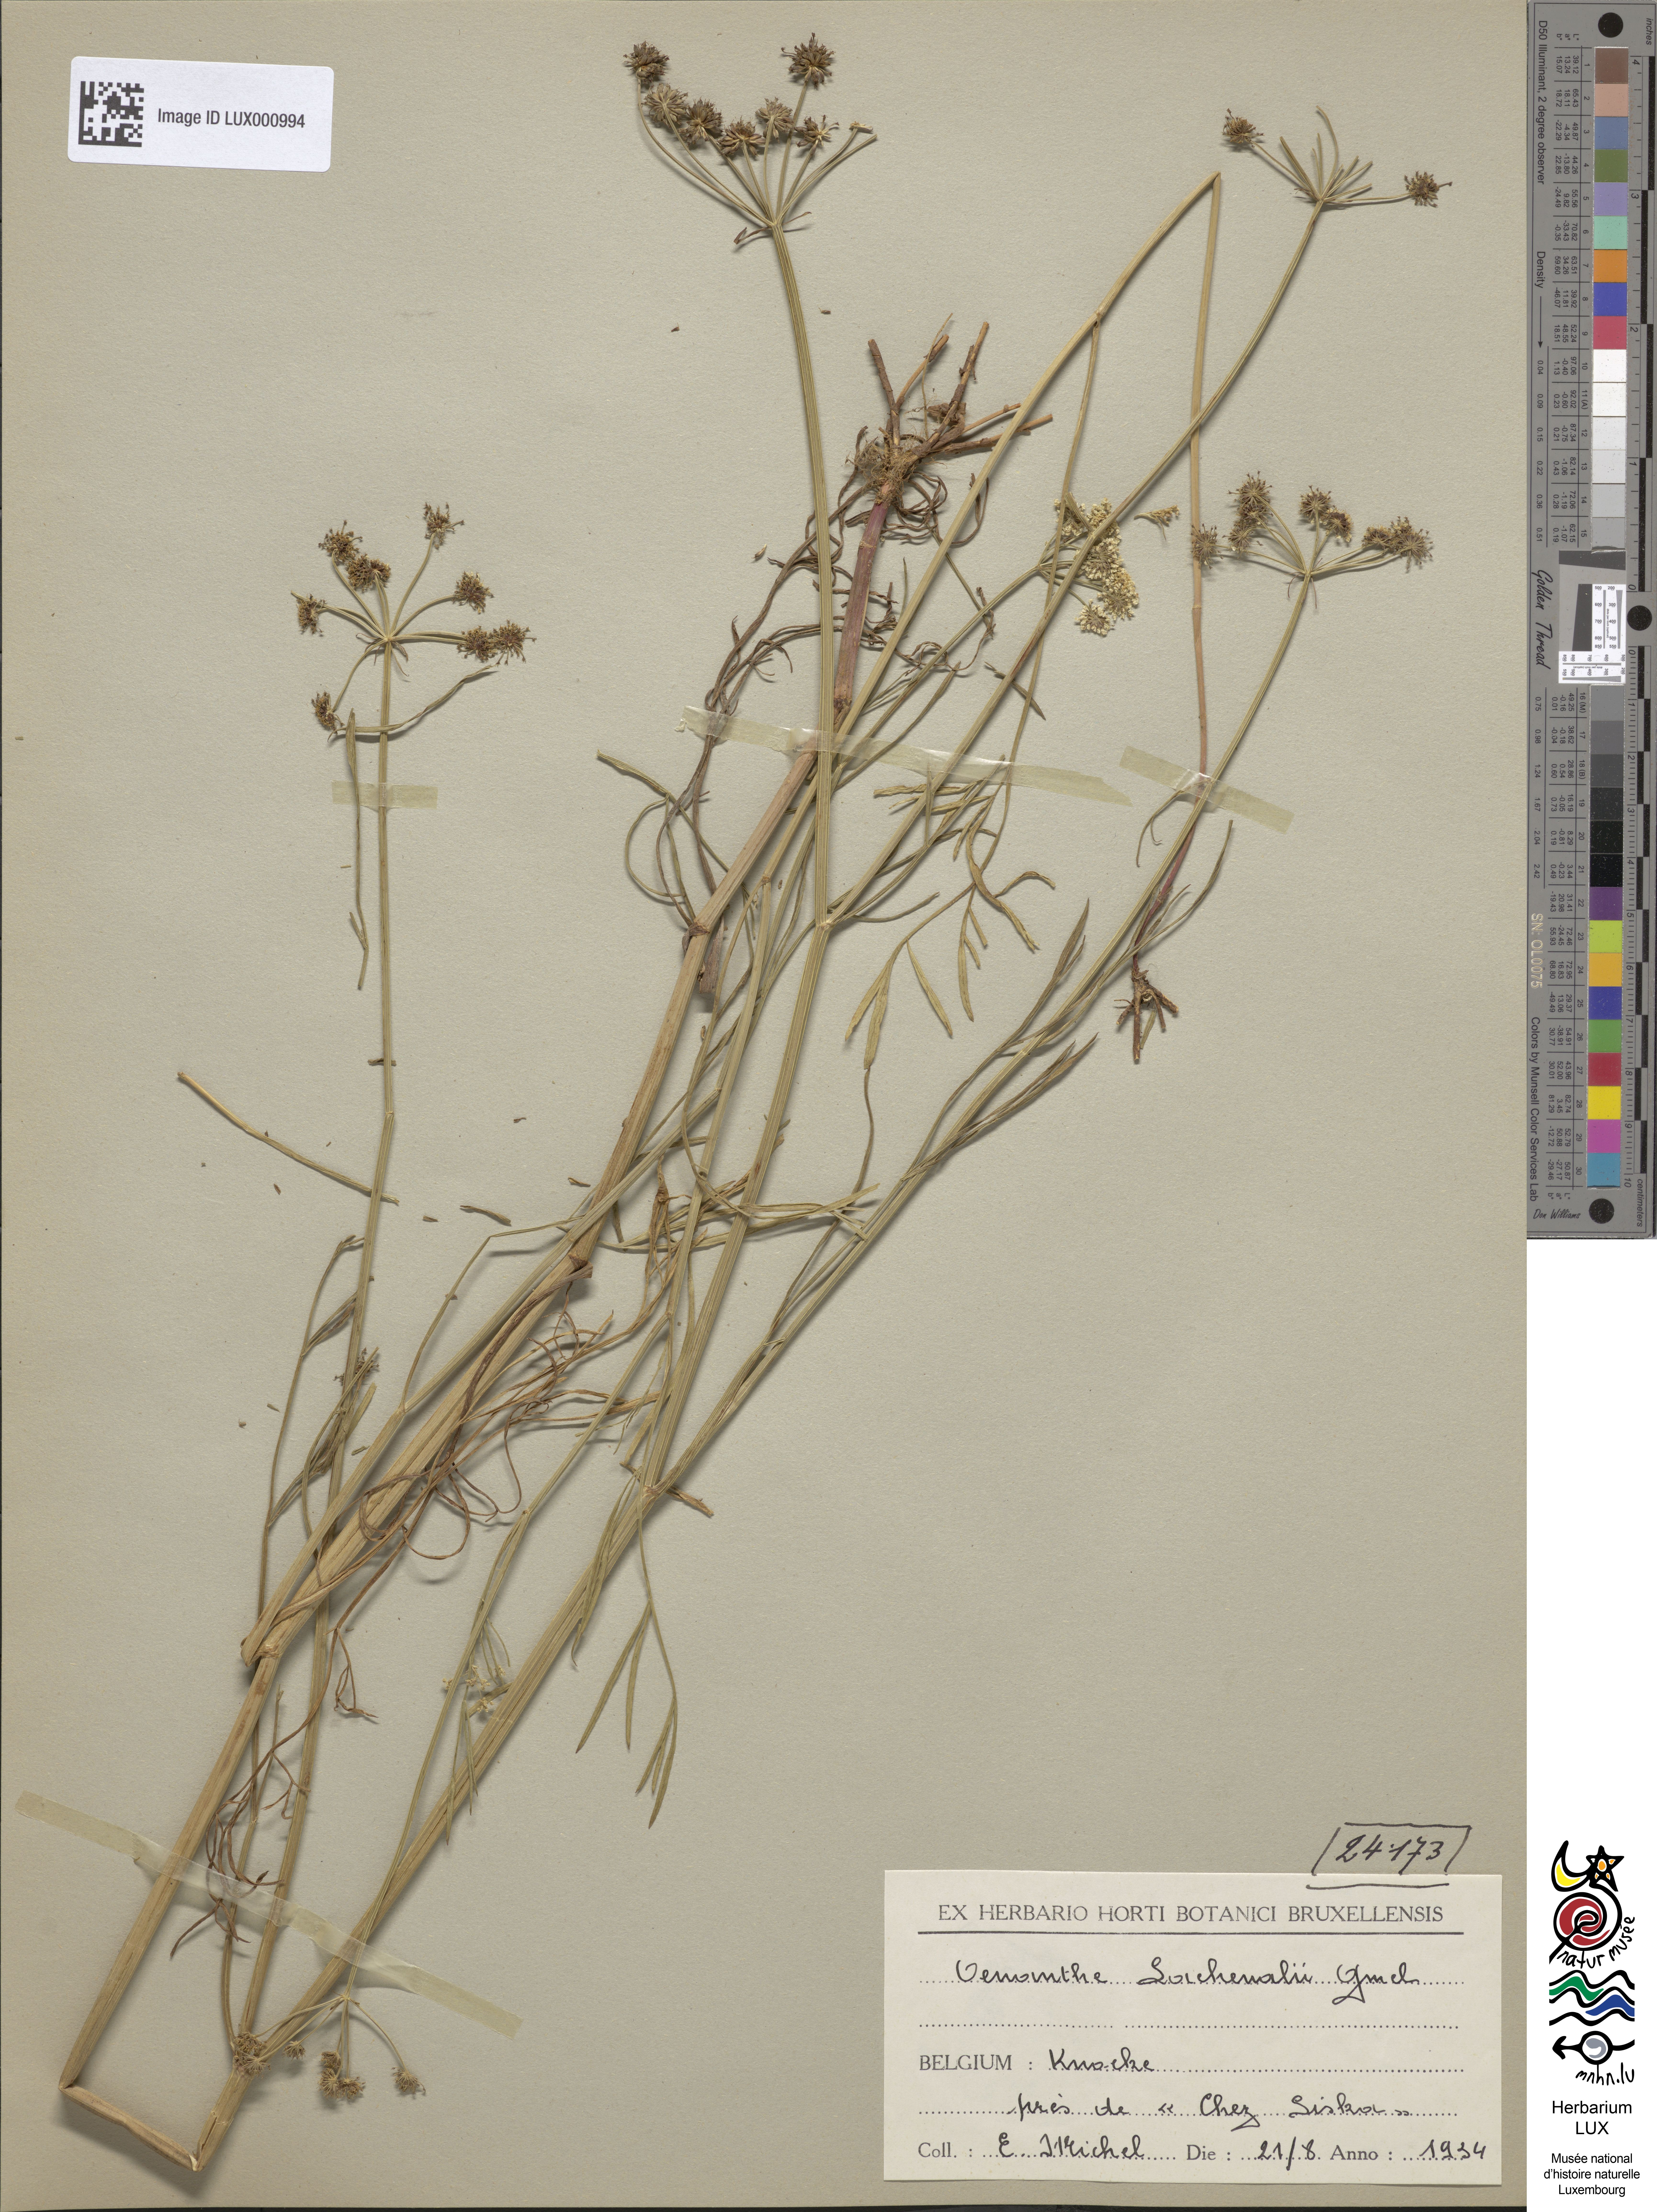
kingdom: Plantae
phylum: Tracheophyta
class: Magnoliopsida
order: Apiales
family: Apiaceae
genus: Oenanthe
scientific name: Oenanthe lachenalii
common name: Parsley water-dropwort
